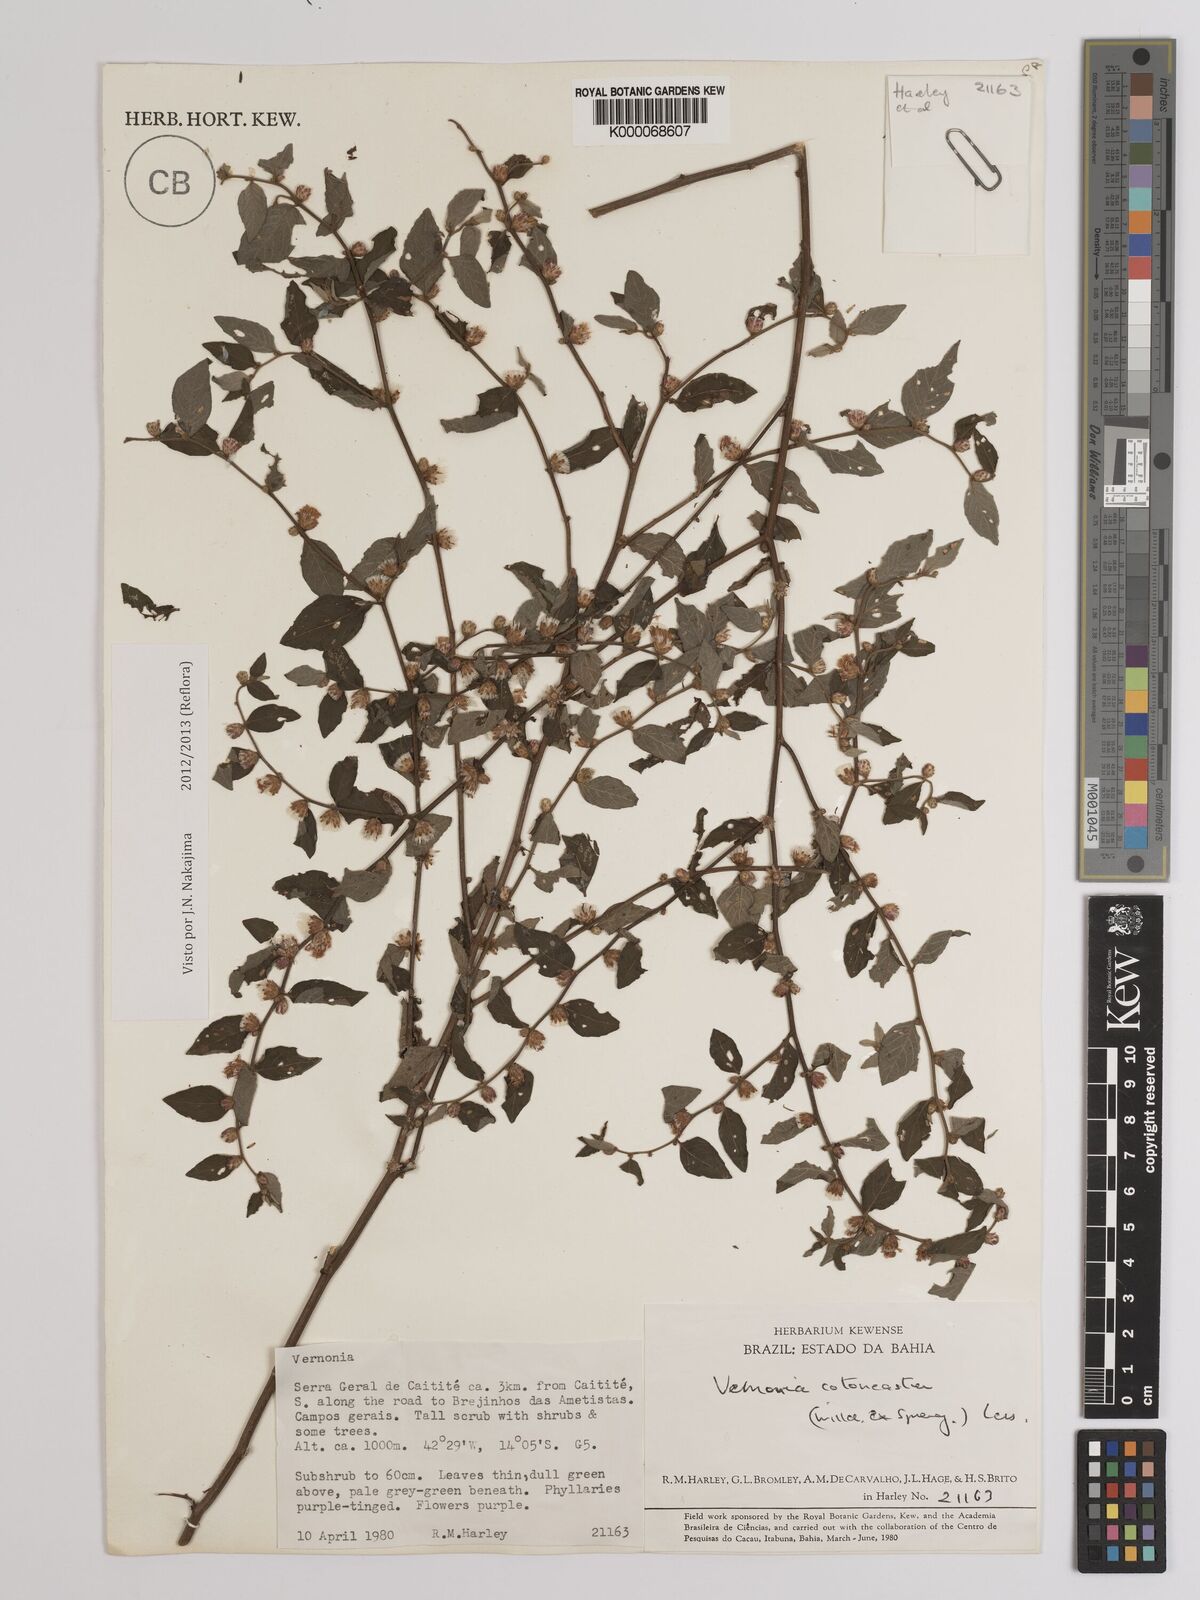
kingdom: Plantae
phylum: Tracheophyta
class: Magnoliopsida
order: Asterales
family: Asteraceae
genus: Lepidaploa
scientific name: Lepidaploa cotoneaster
